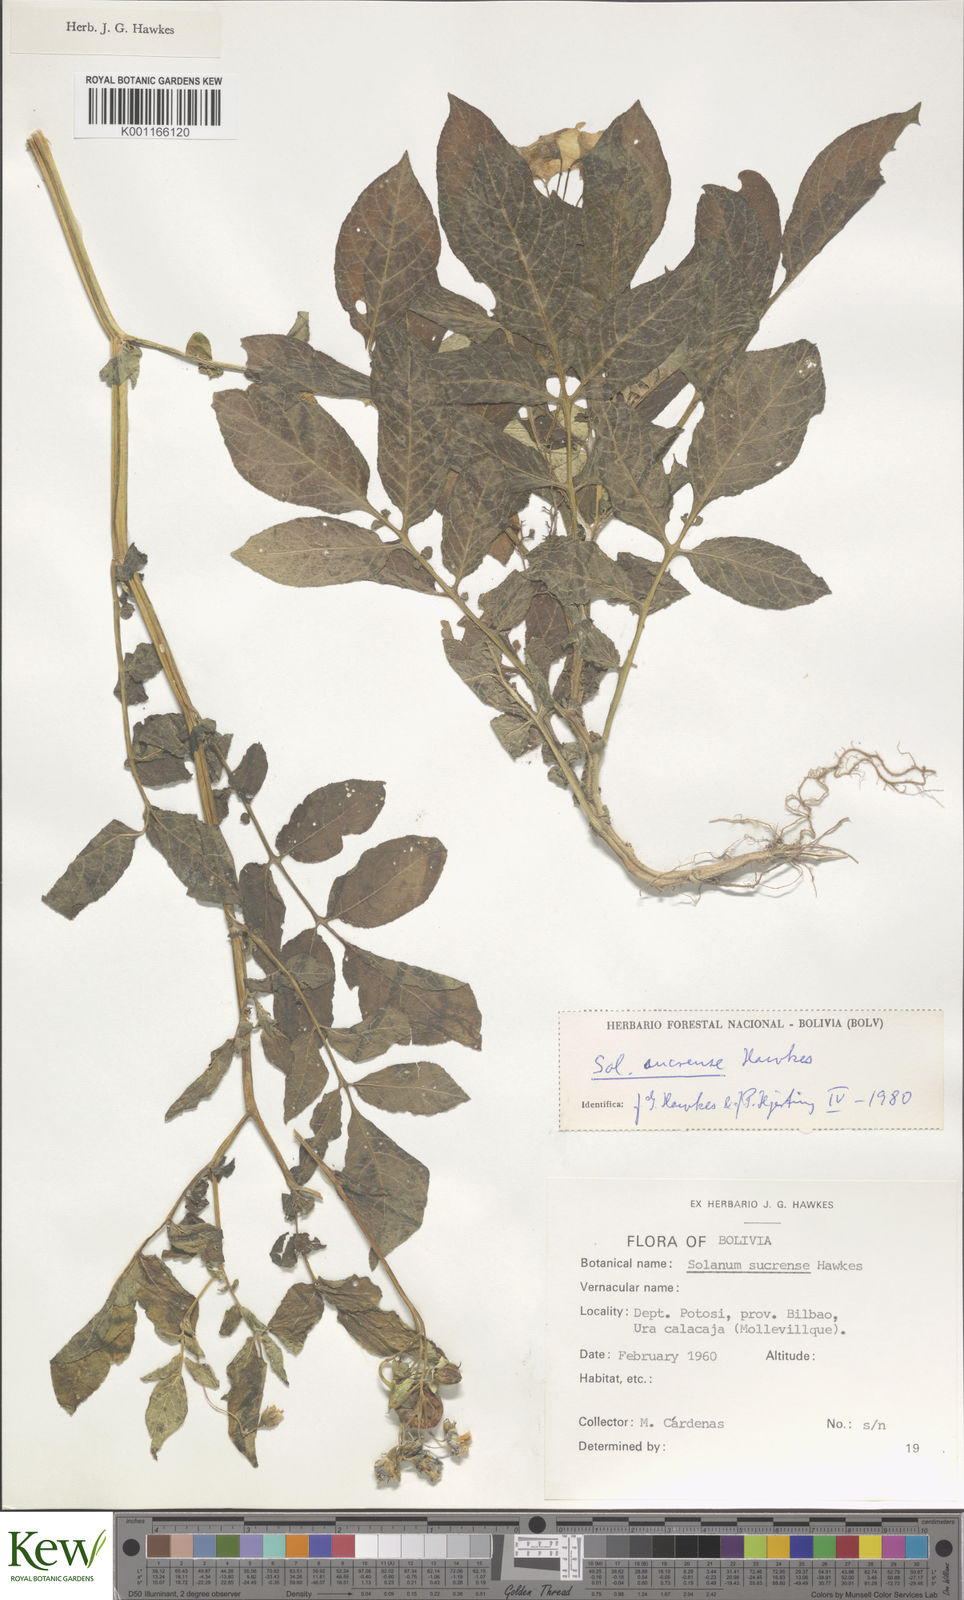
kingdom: Plantae
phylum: Tracheophyta
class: Magnoliopsida
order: Solanales
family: Solanaceae
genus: Solanum
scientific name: Solanum brevicaule
